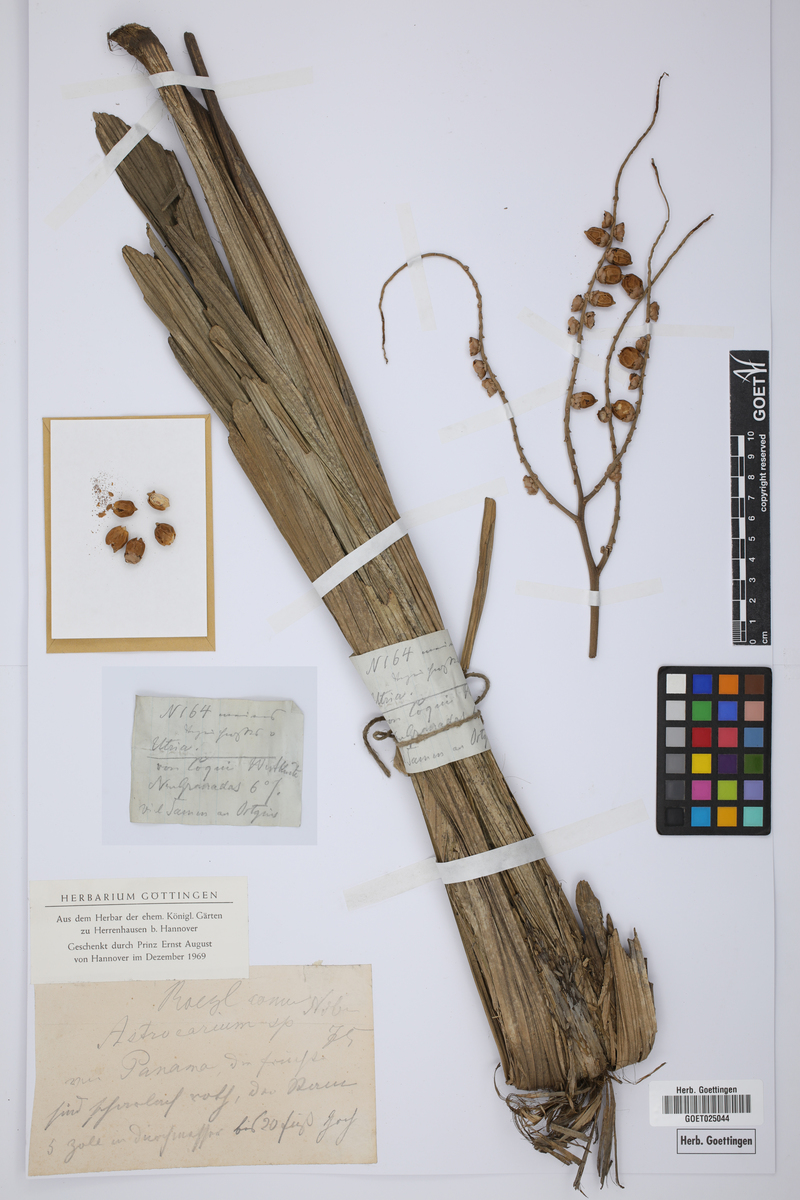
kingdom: Plantae
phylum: Tracheophyta
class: Liliopsida
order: Arecales
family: Arecaceae
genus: Astrocaryum
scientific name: Astrocaryum
